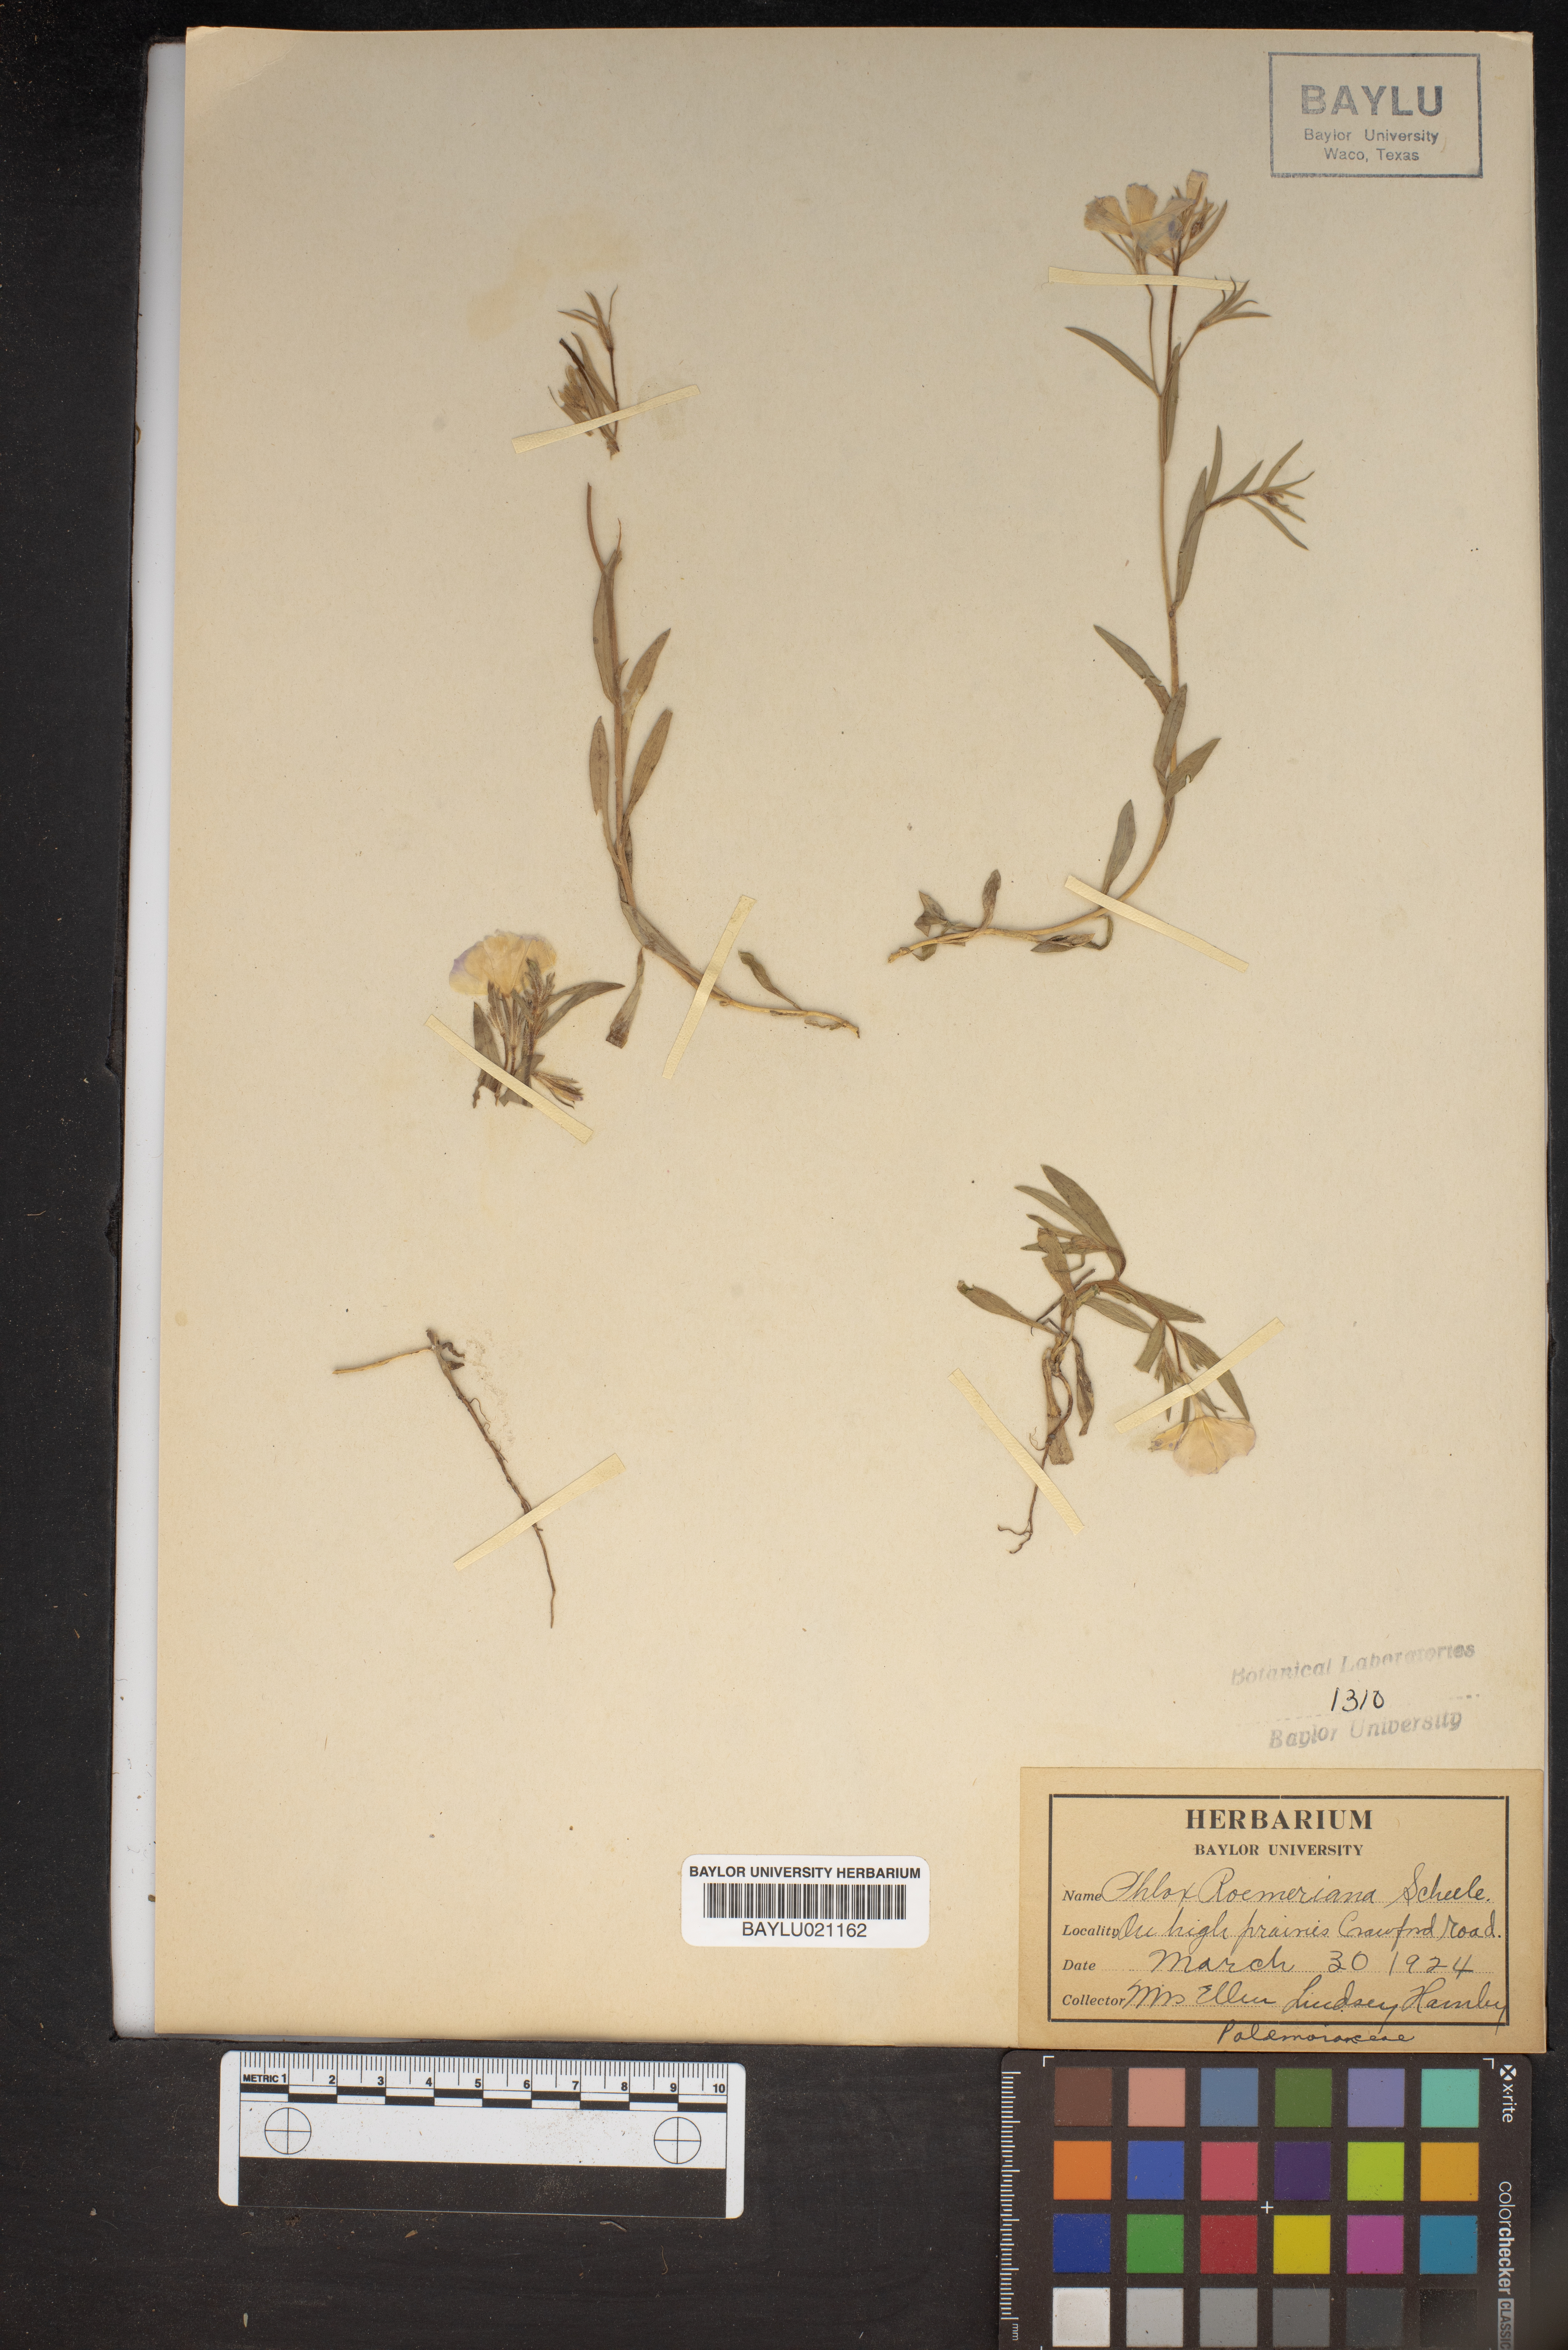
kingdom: Plantae
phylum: Tracheophyta
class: Magnoliopsida
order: Ericales
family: Polemoniaceae
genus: Phlox
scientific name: Phlox roemeriana
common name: Roemer's phlox
